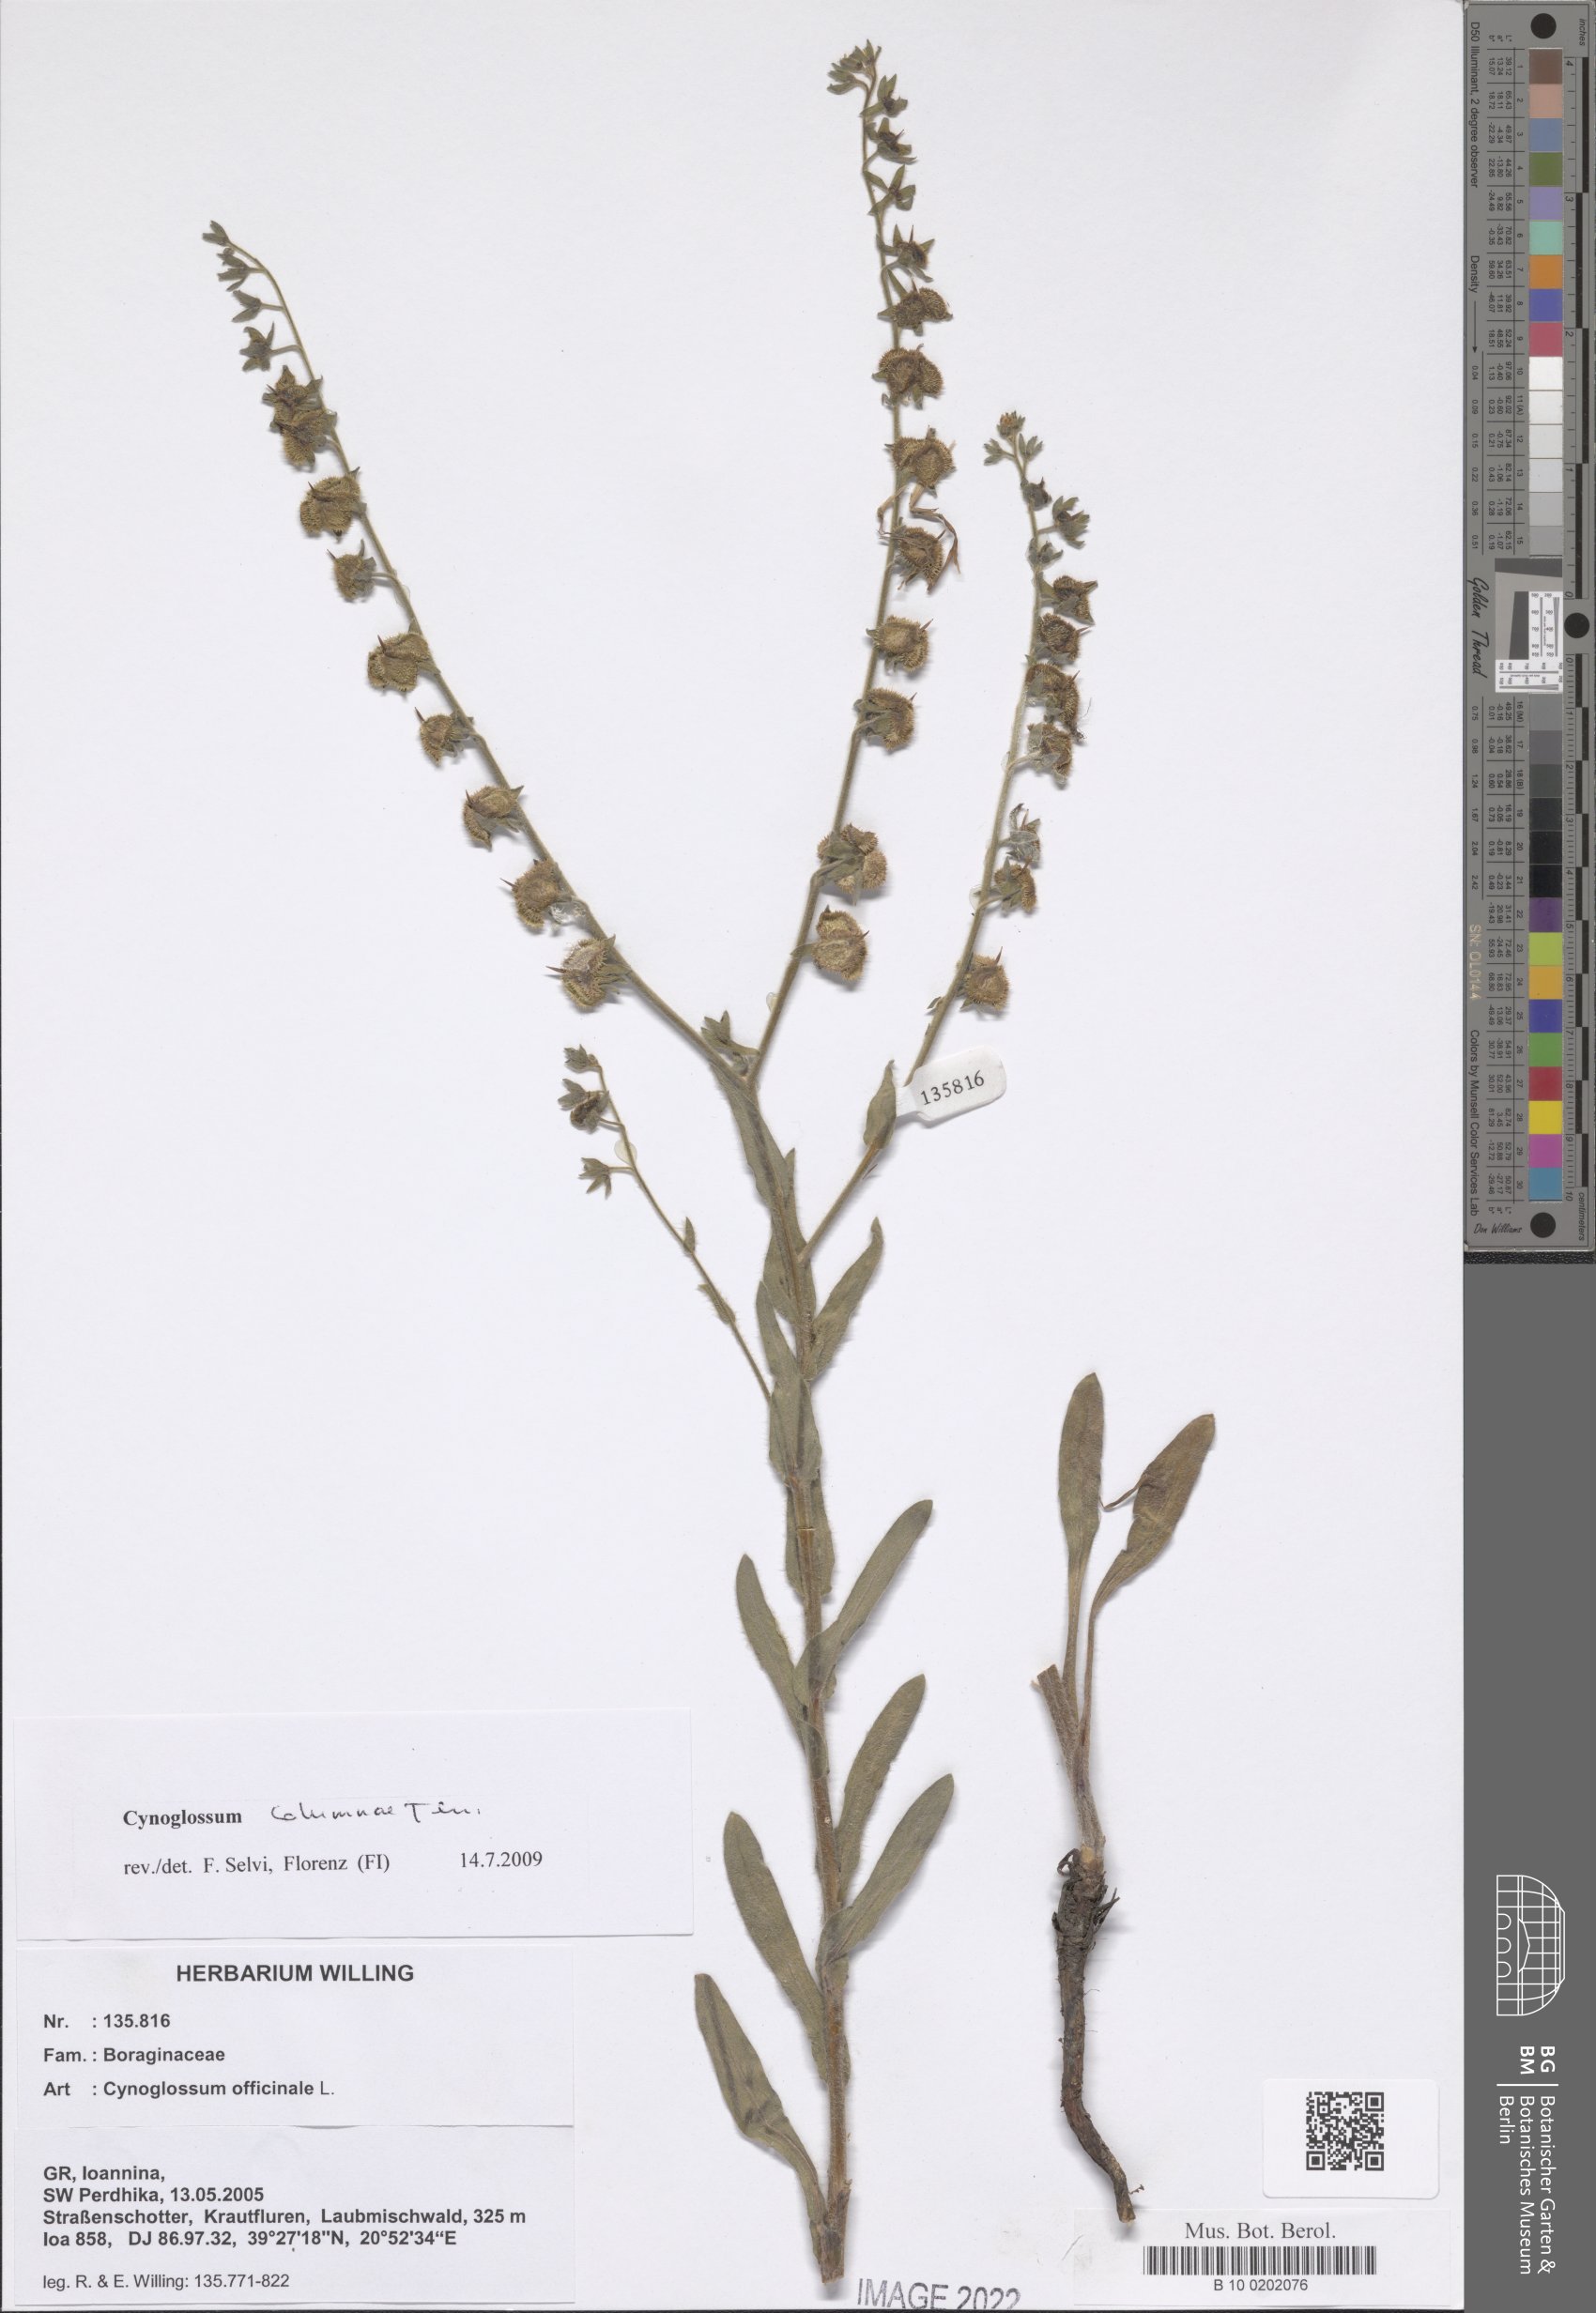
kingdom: Plantae
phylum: Tracheophyta
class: Magnoliopsida
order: Boraginales
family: Boraginaceae
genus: Rindera
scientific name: Rindera columnae
